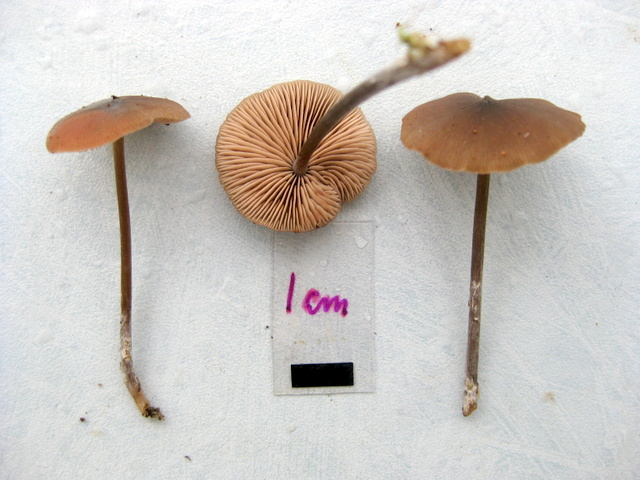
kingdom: Fungi
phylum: Basidiomycota
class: Agaricomycetes
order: Agaricales
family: Entolomataceae
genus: Entoloma
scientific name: Entoloma hebes
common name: krat-rødblad
